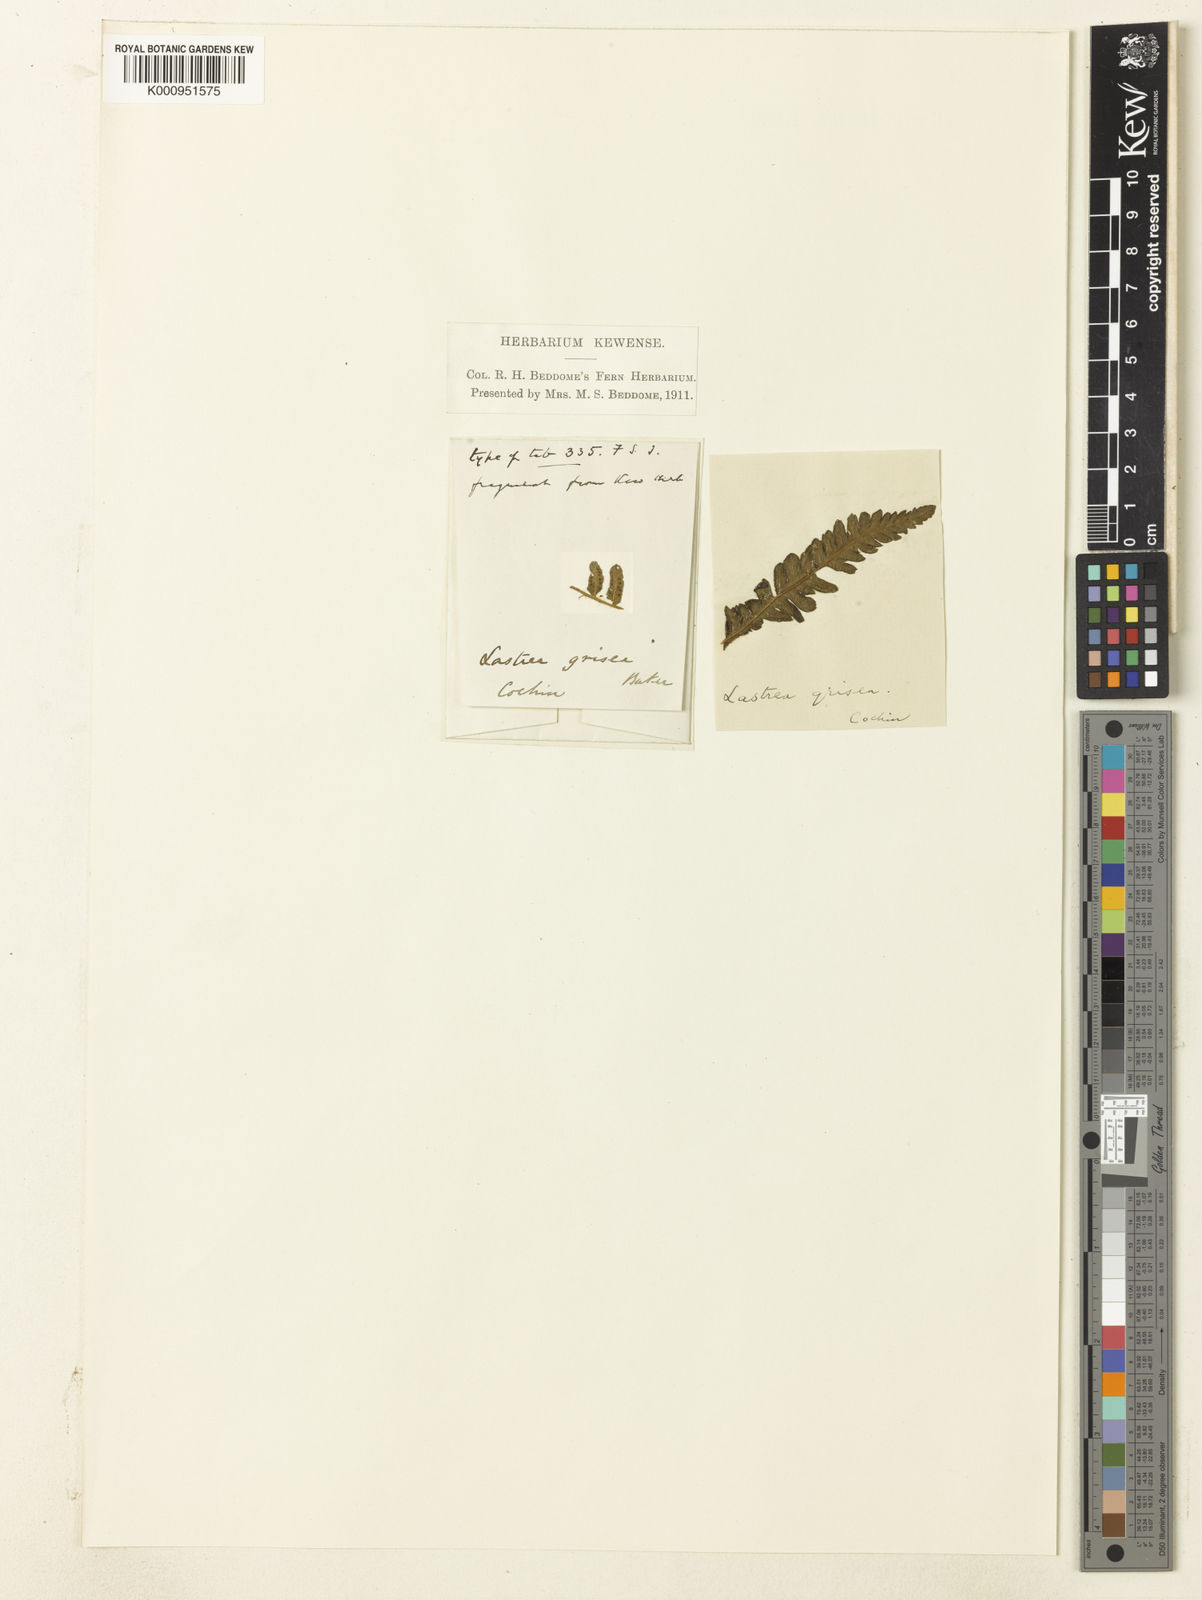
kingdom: Plantae
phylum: Tracheophyta
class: Polypodiopsida
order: Polypodiales
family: Thelypteridaceae
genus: Pseudocyclosorus
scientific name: Pseudocyclosorus ochthodes
